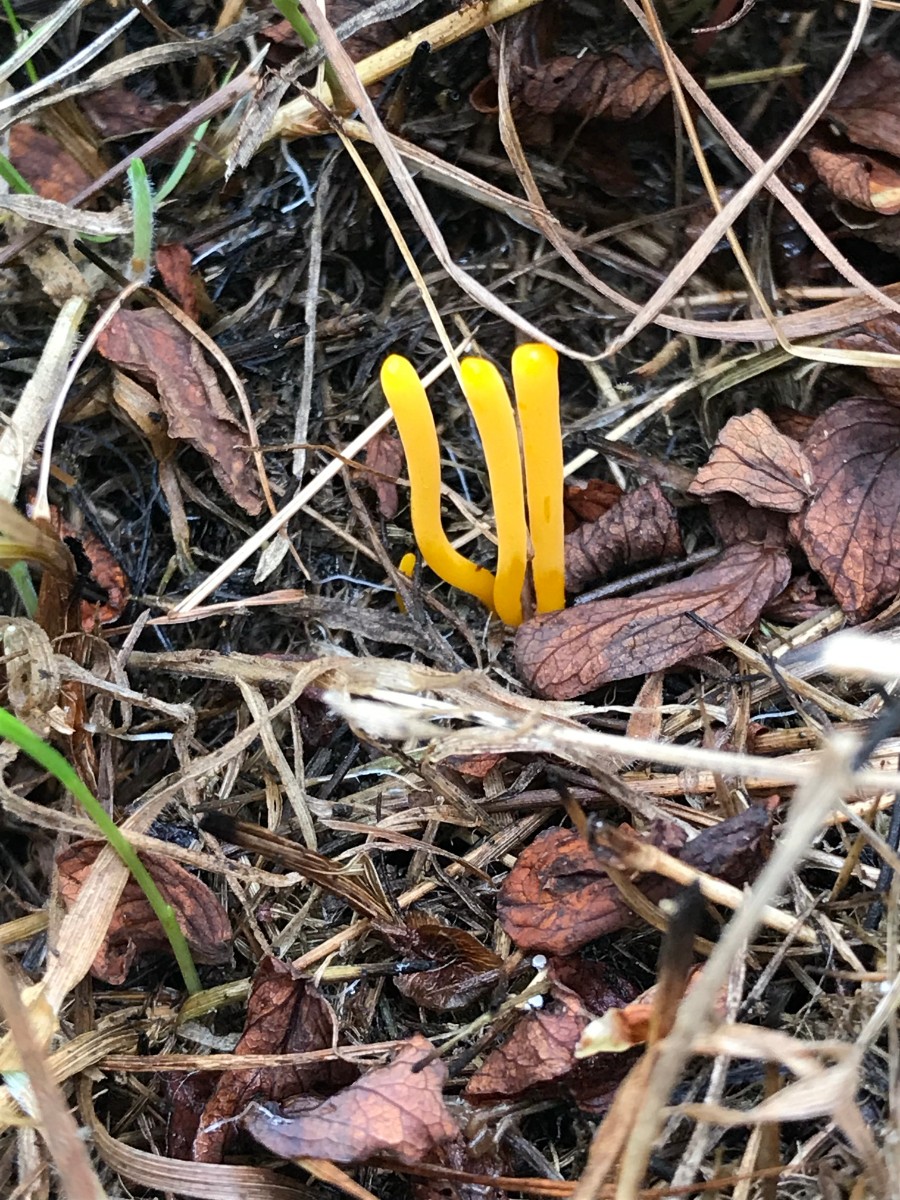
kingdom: Fungi
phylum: Basidiomycota
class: Agaricomycetes
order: Agaricales
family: Clavariaceae
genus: Clavulinopsis
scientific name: Clavulinopsis helvola
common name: orangegul køllesvamp
